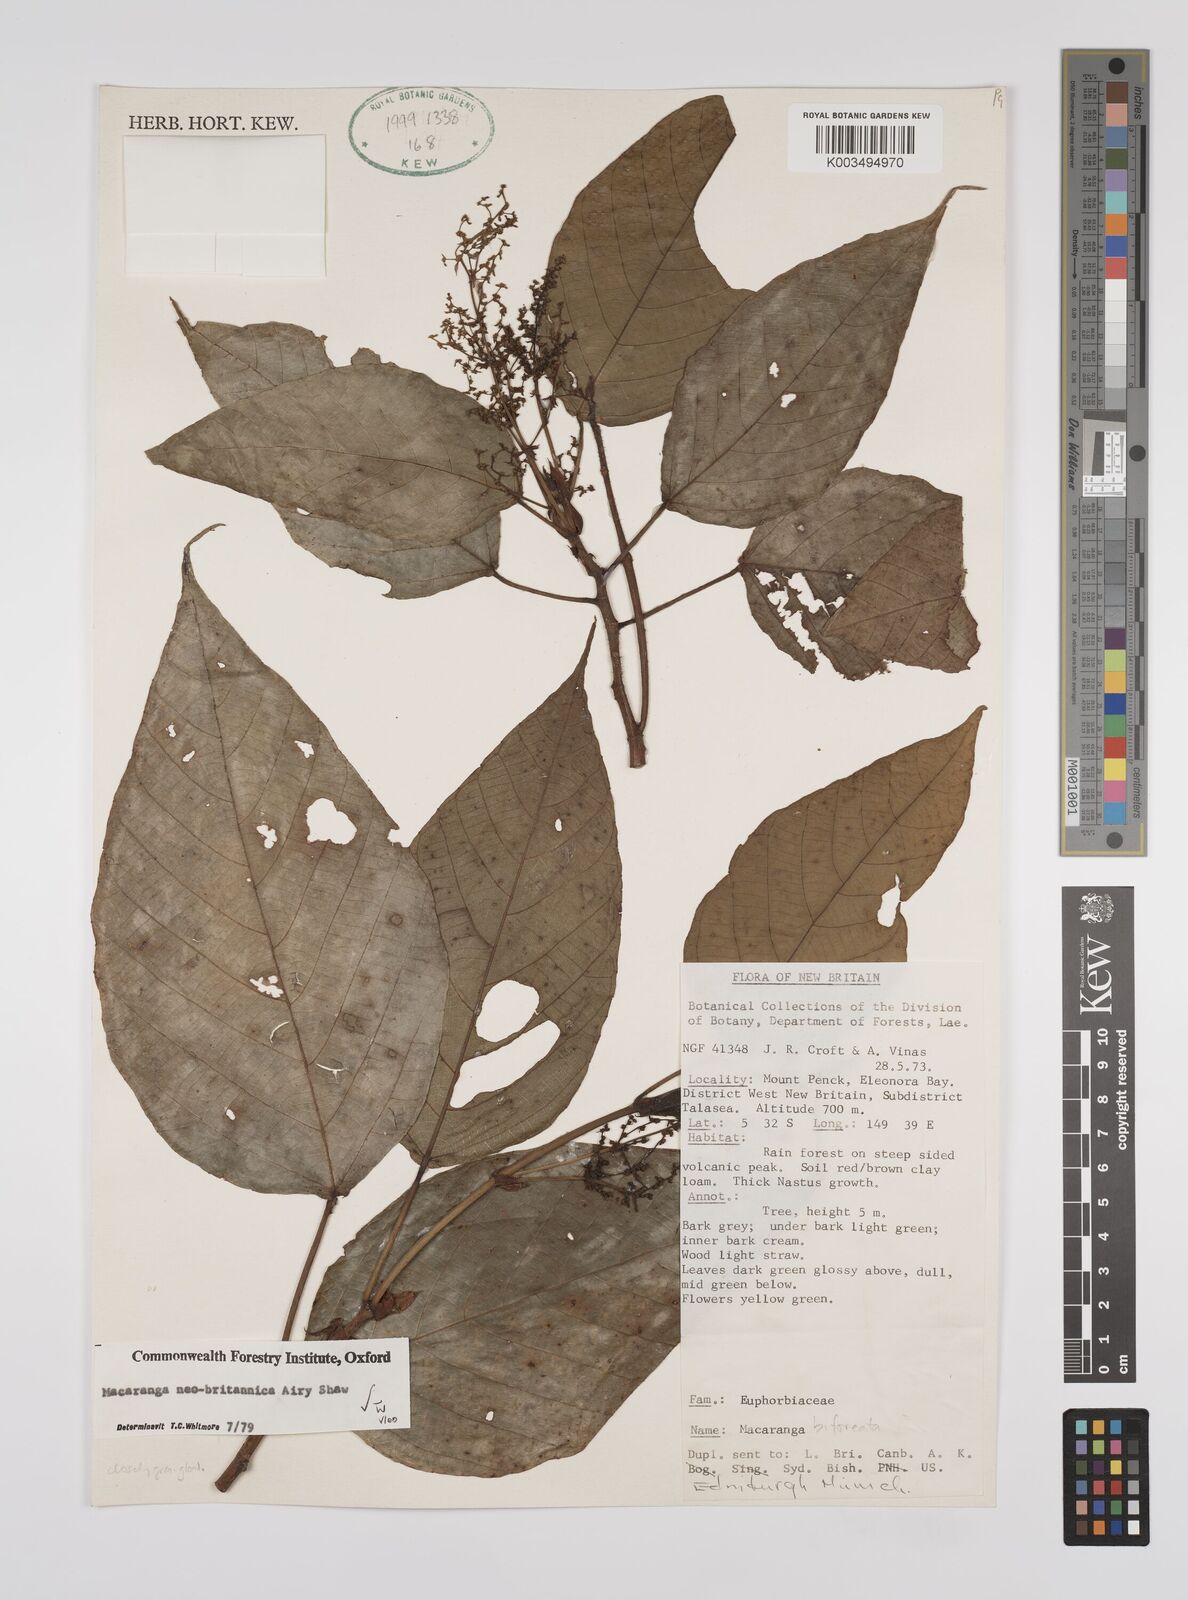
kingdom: Plantae
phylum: Tracheophyta
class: Magnoliopsida
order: Malpighiales
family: Euphorbiaceae
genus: Macaranga
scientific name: Macaranga neobritannica
